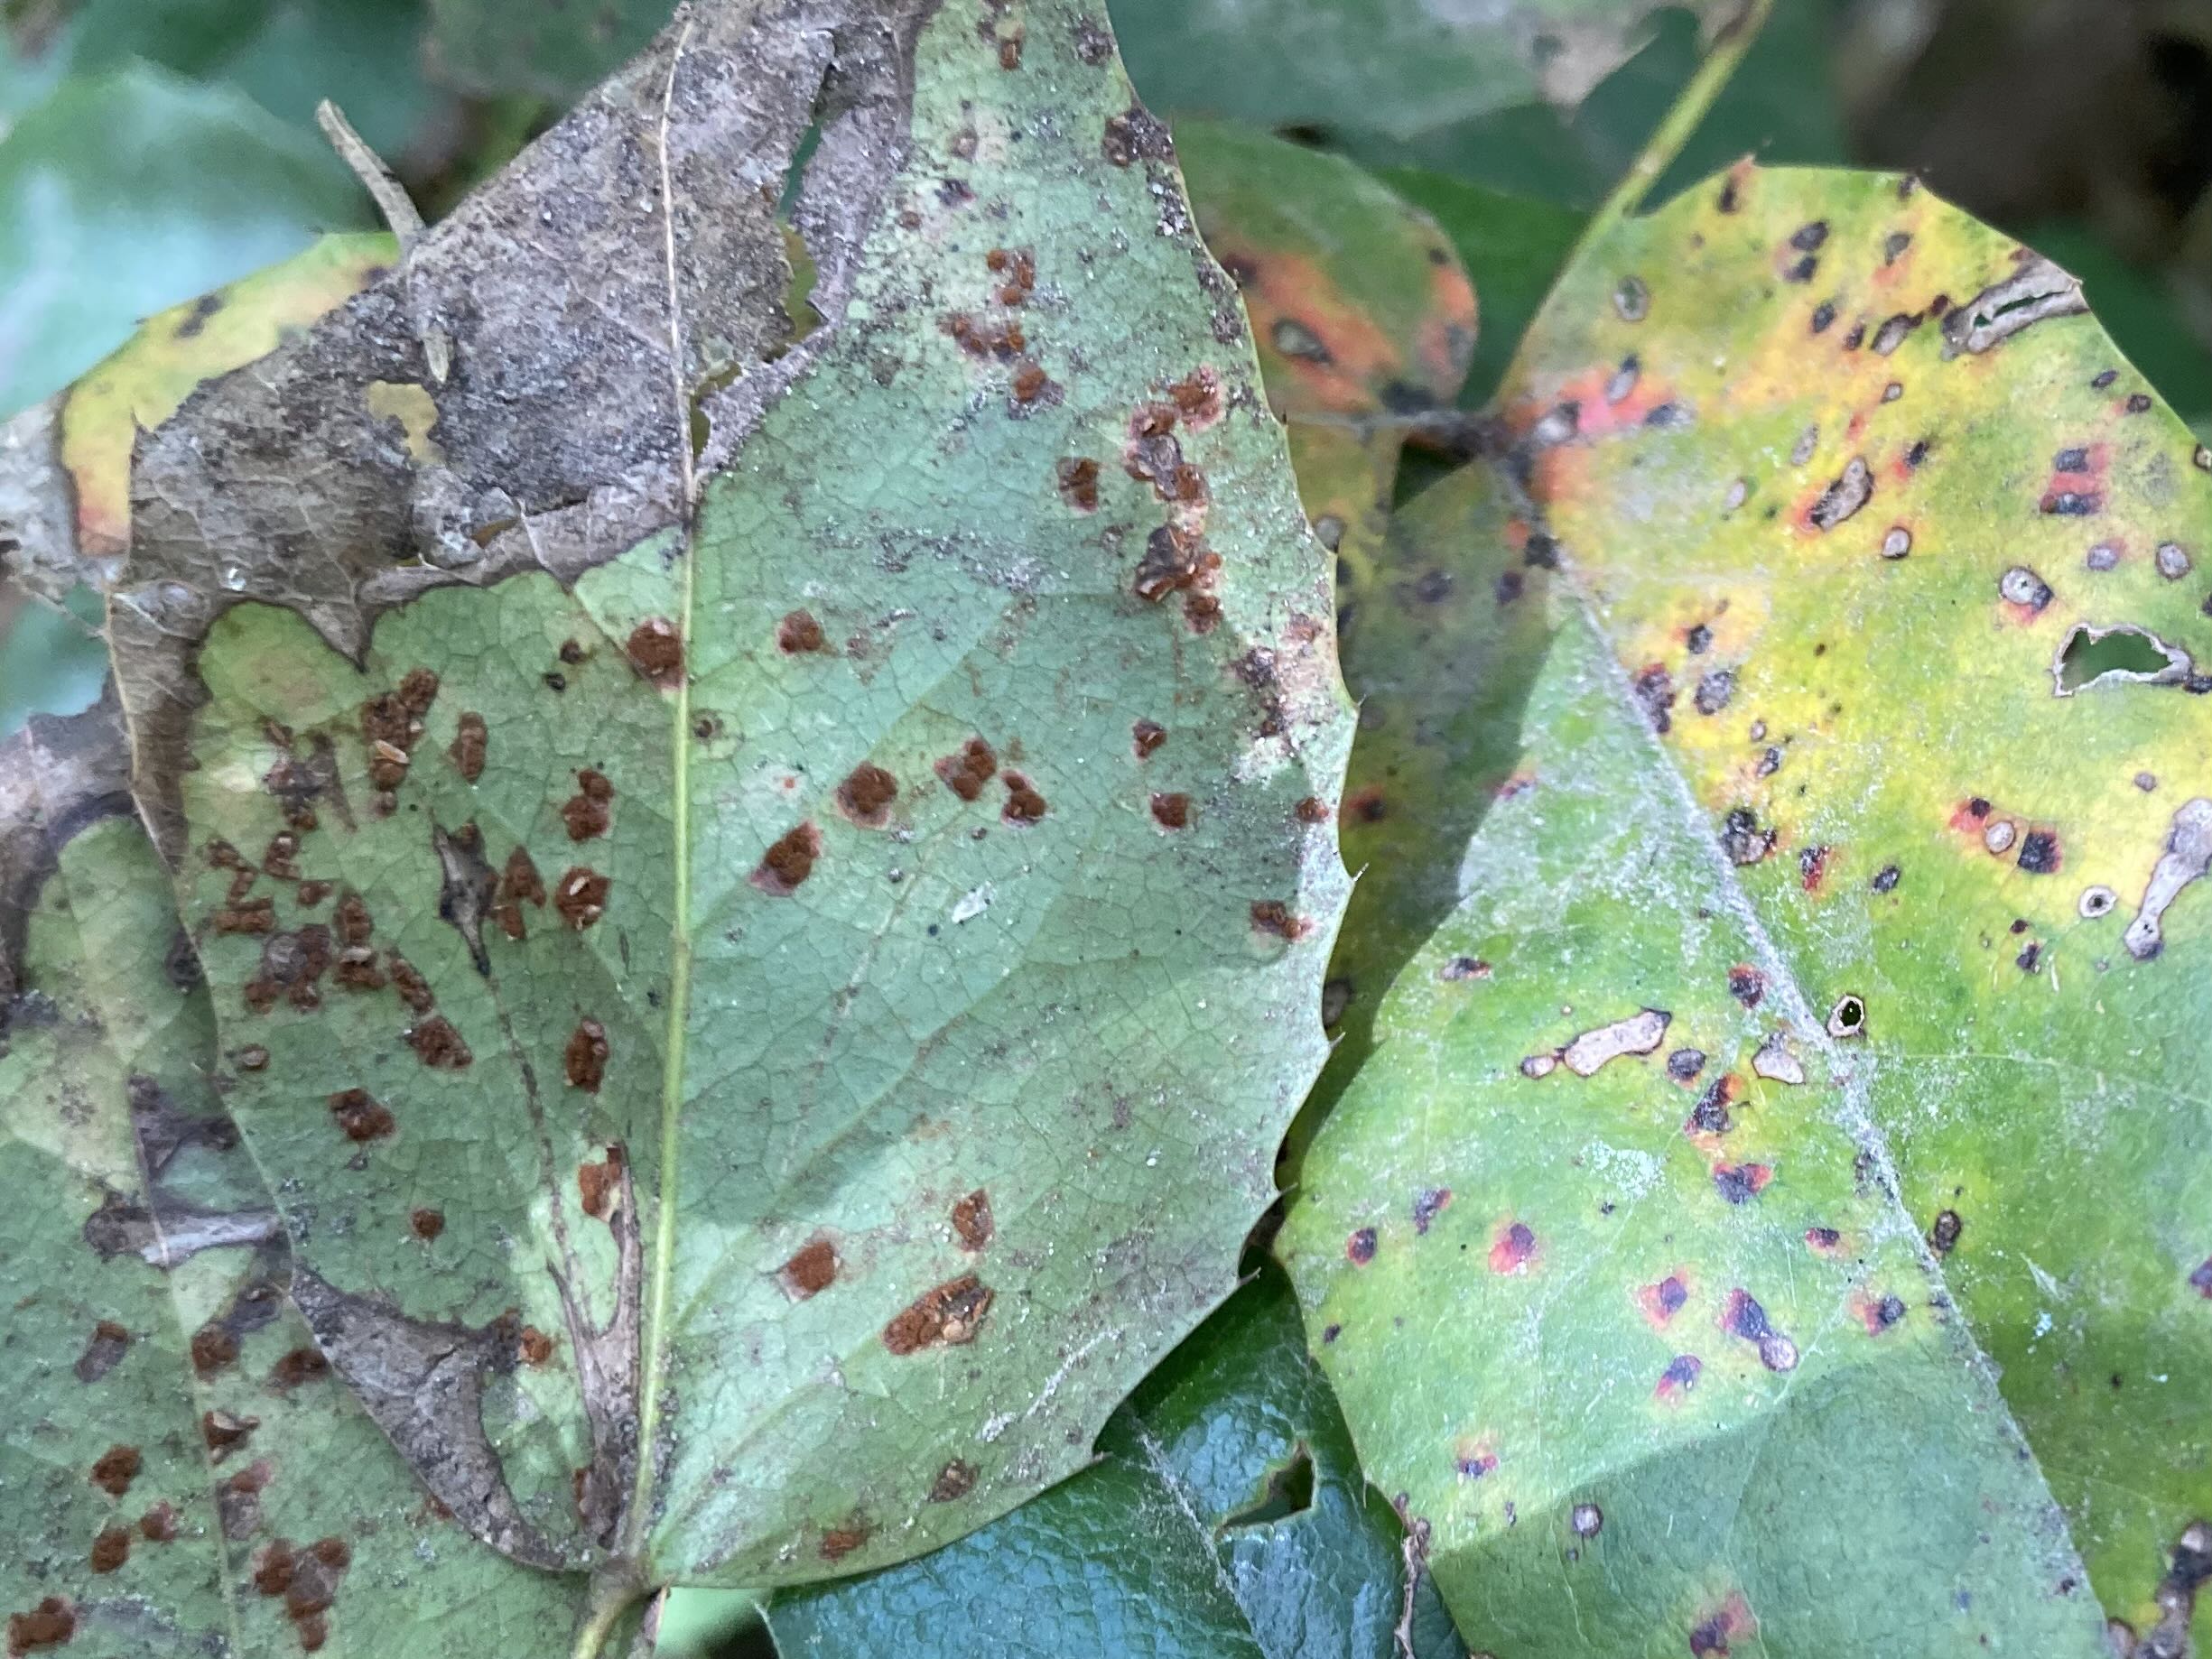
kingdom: Fungi
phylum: Basidiomycota
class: Pucciniomycetes
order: Pucciniales
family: Pucciniaceae
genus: Cumminsiella
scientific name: Cumminsiella mirabilissima
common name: mahonierust
